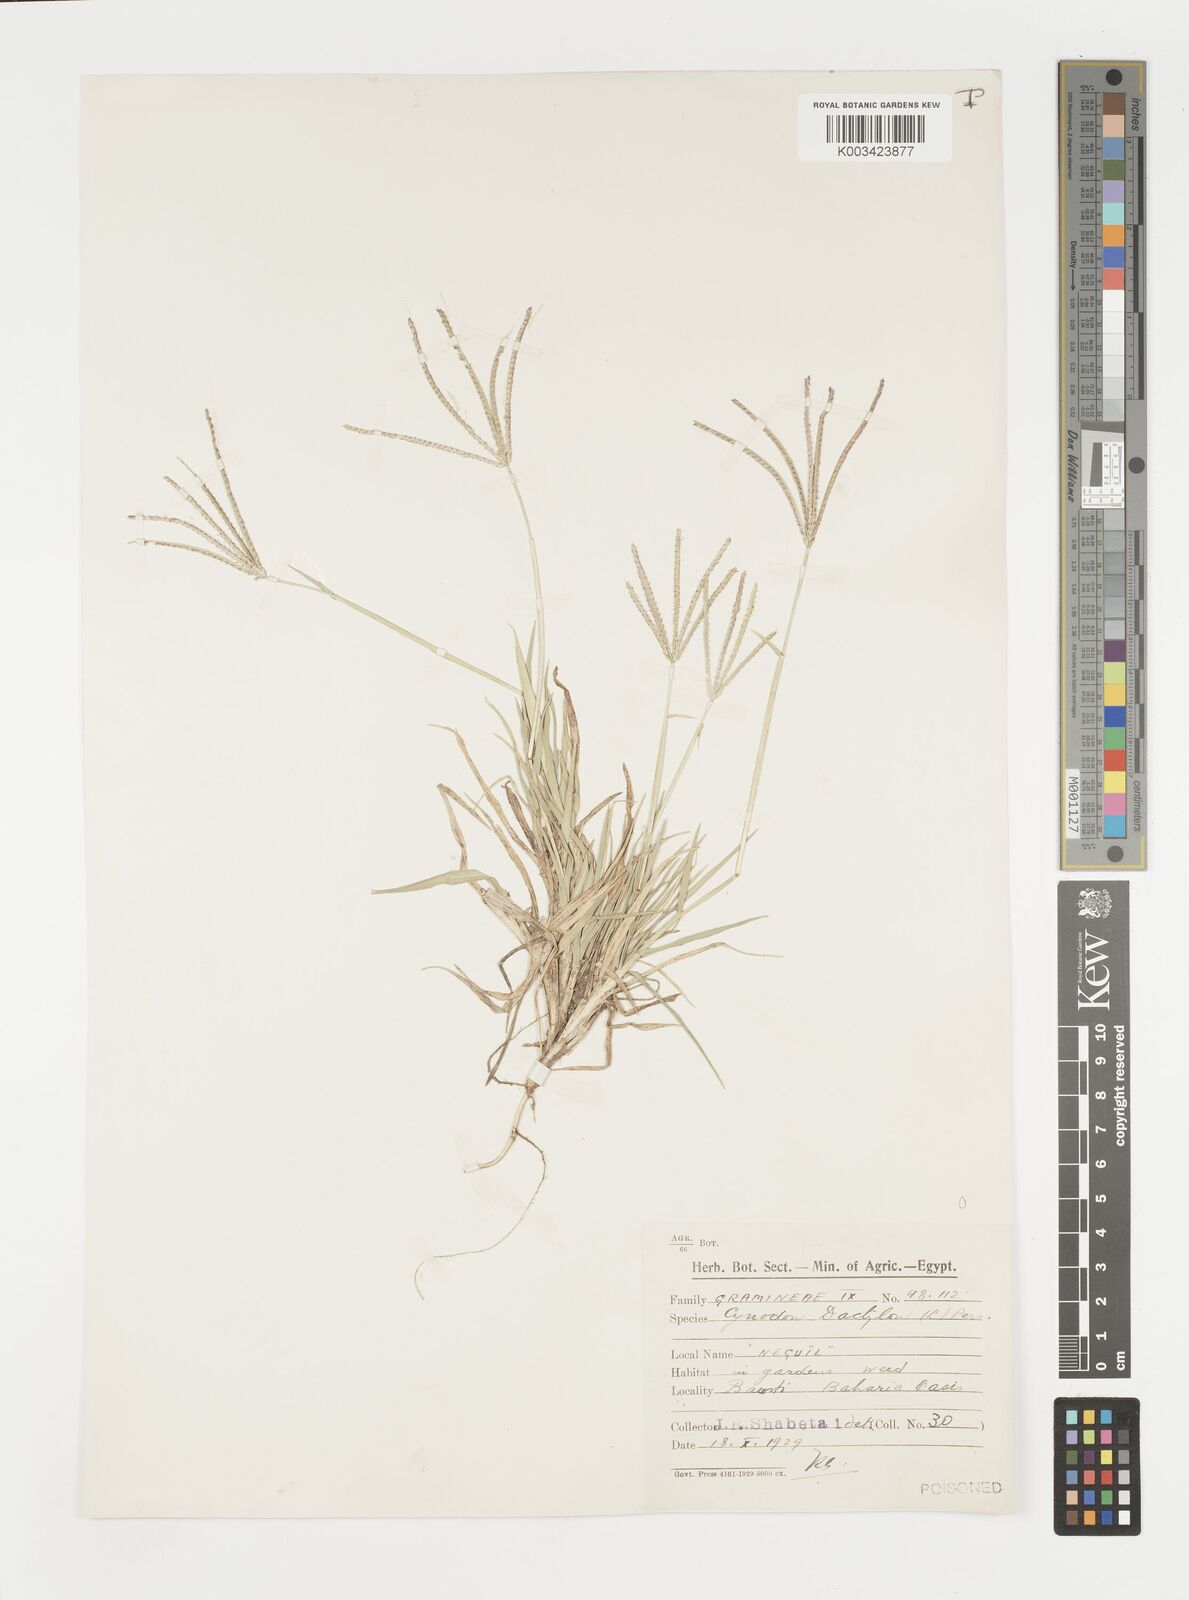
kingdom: Plantae
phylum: Tracheophyta
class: Liliopsida
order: Poales
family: Poaceae
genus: Cynodon
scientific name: Cynodon dactylon
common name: Bermuda grass
